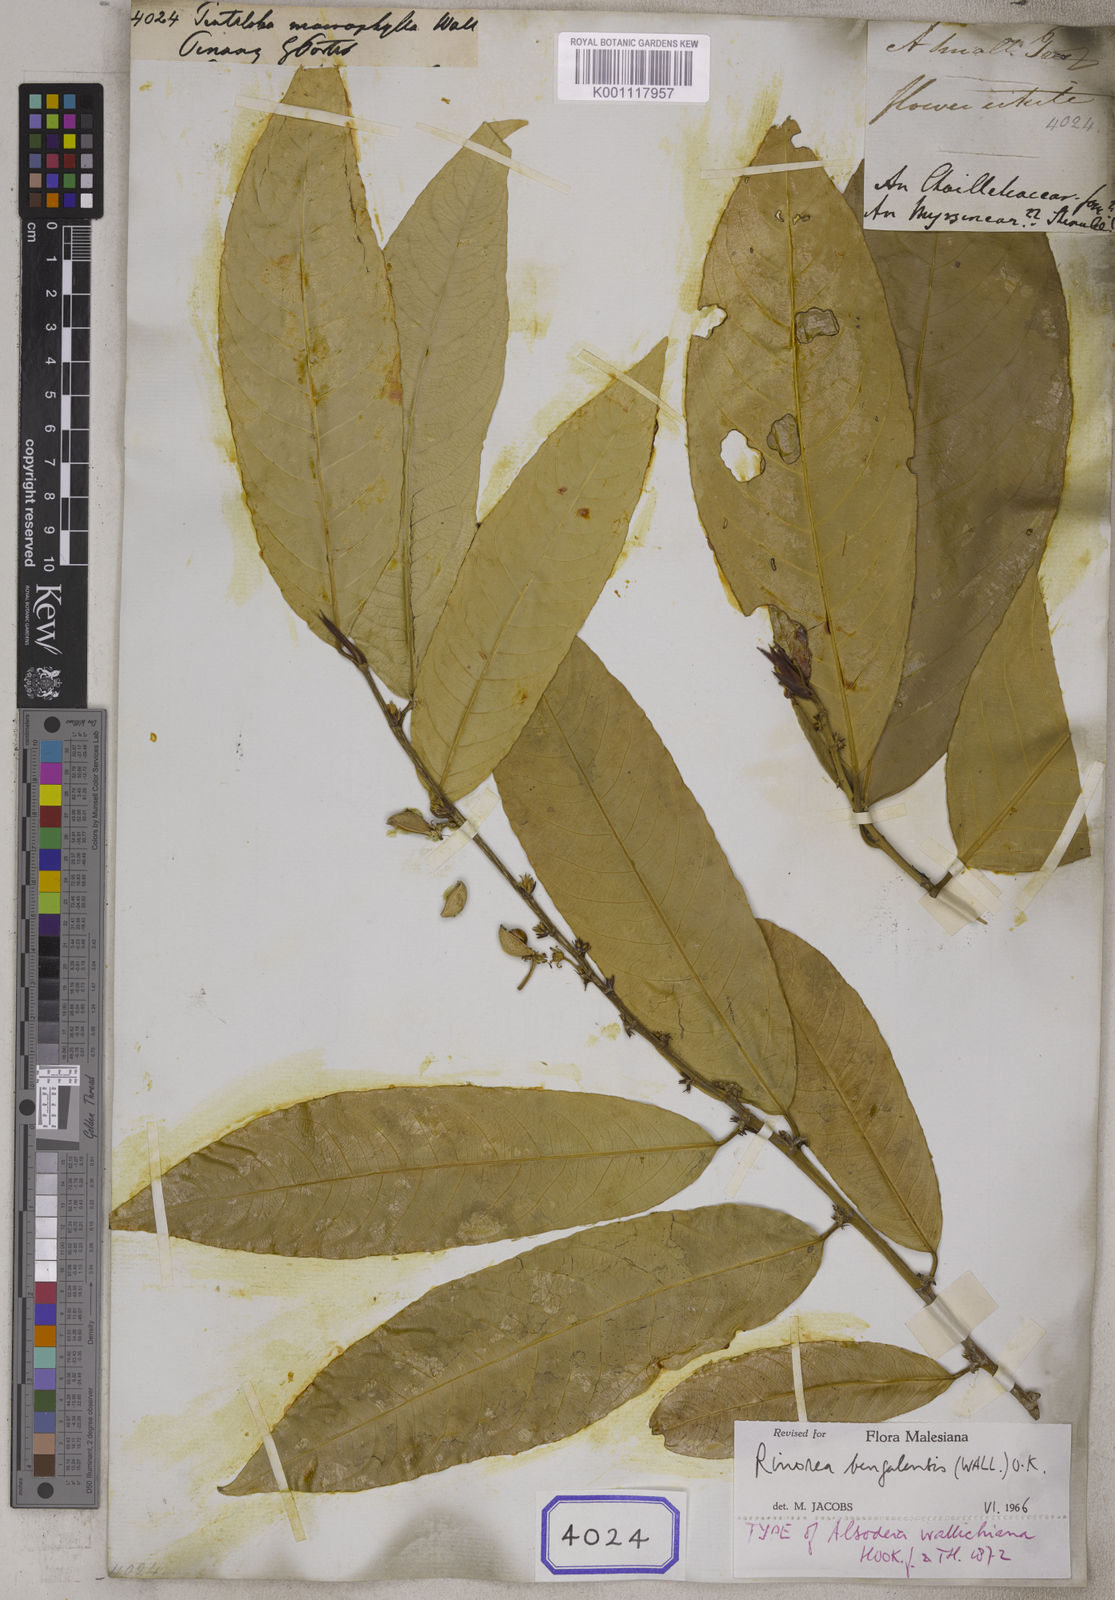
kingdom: Plantae
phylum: Tracheophyta
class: Magnoliopsida
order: Malpighiales
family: Violaceae
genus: Rinorea
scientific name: Rinorea
